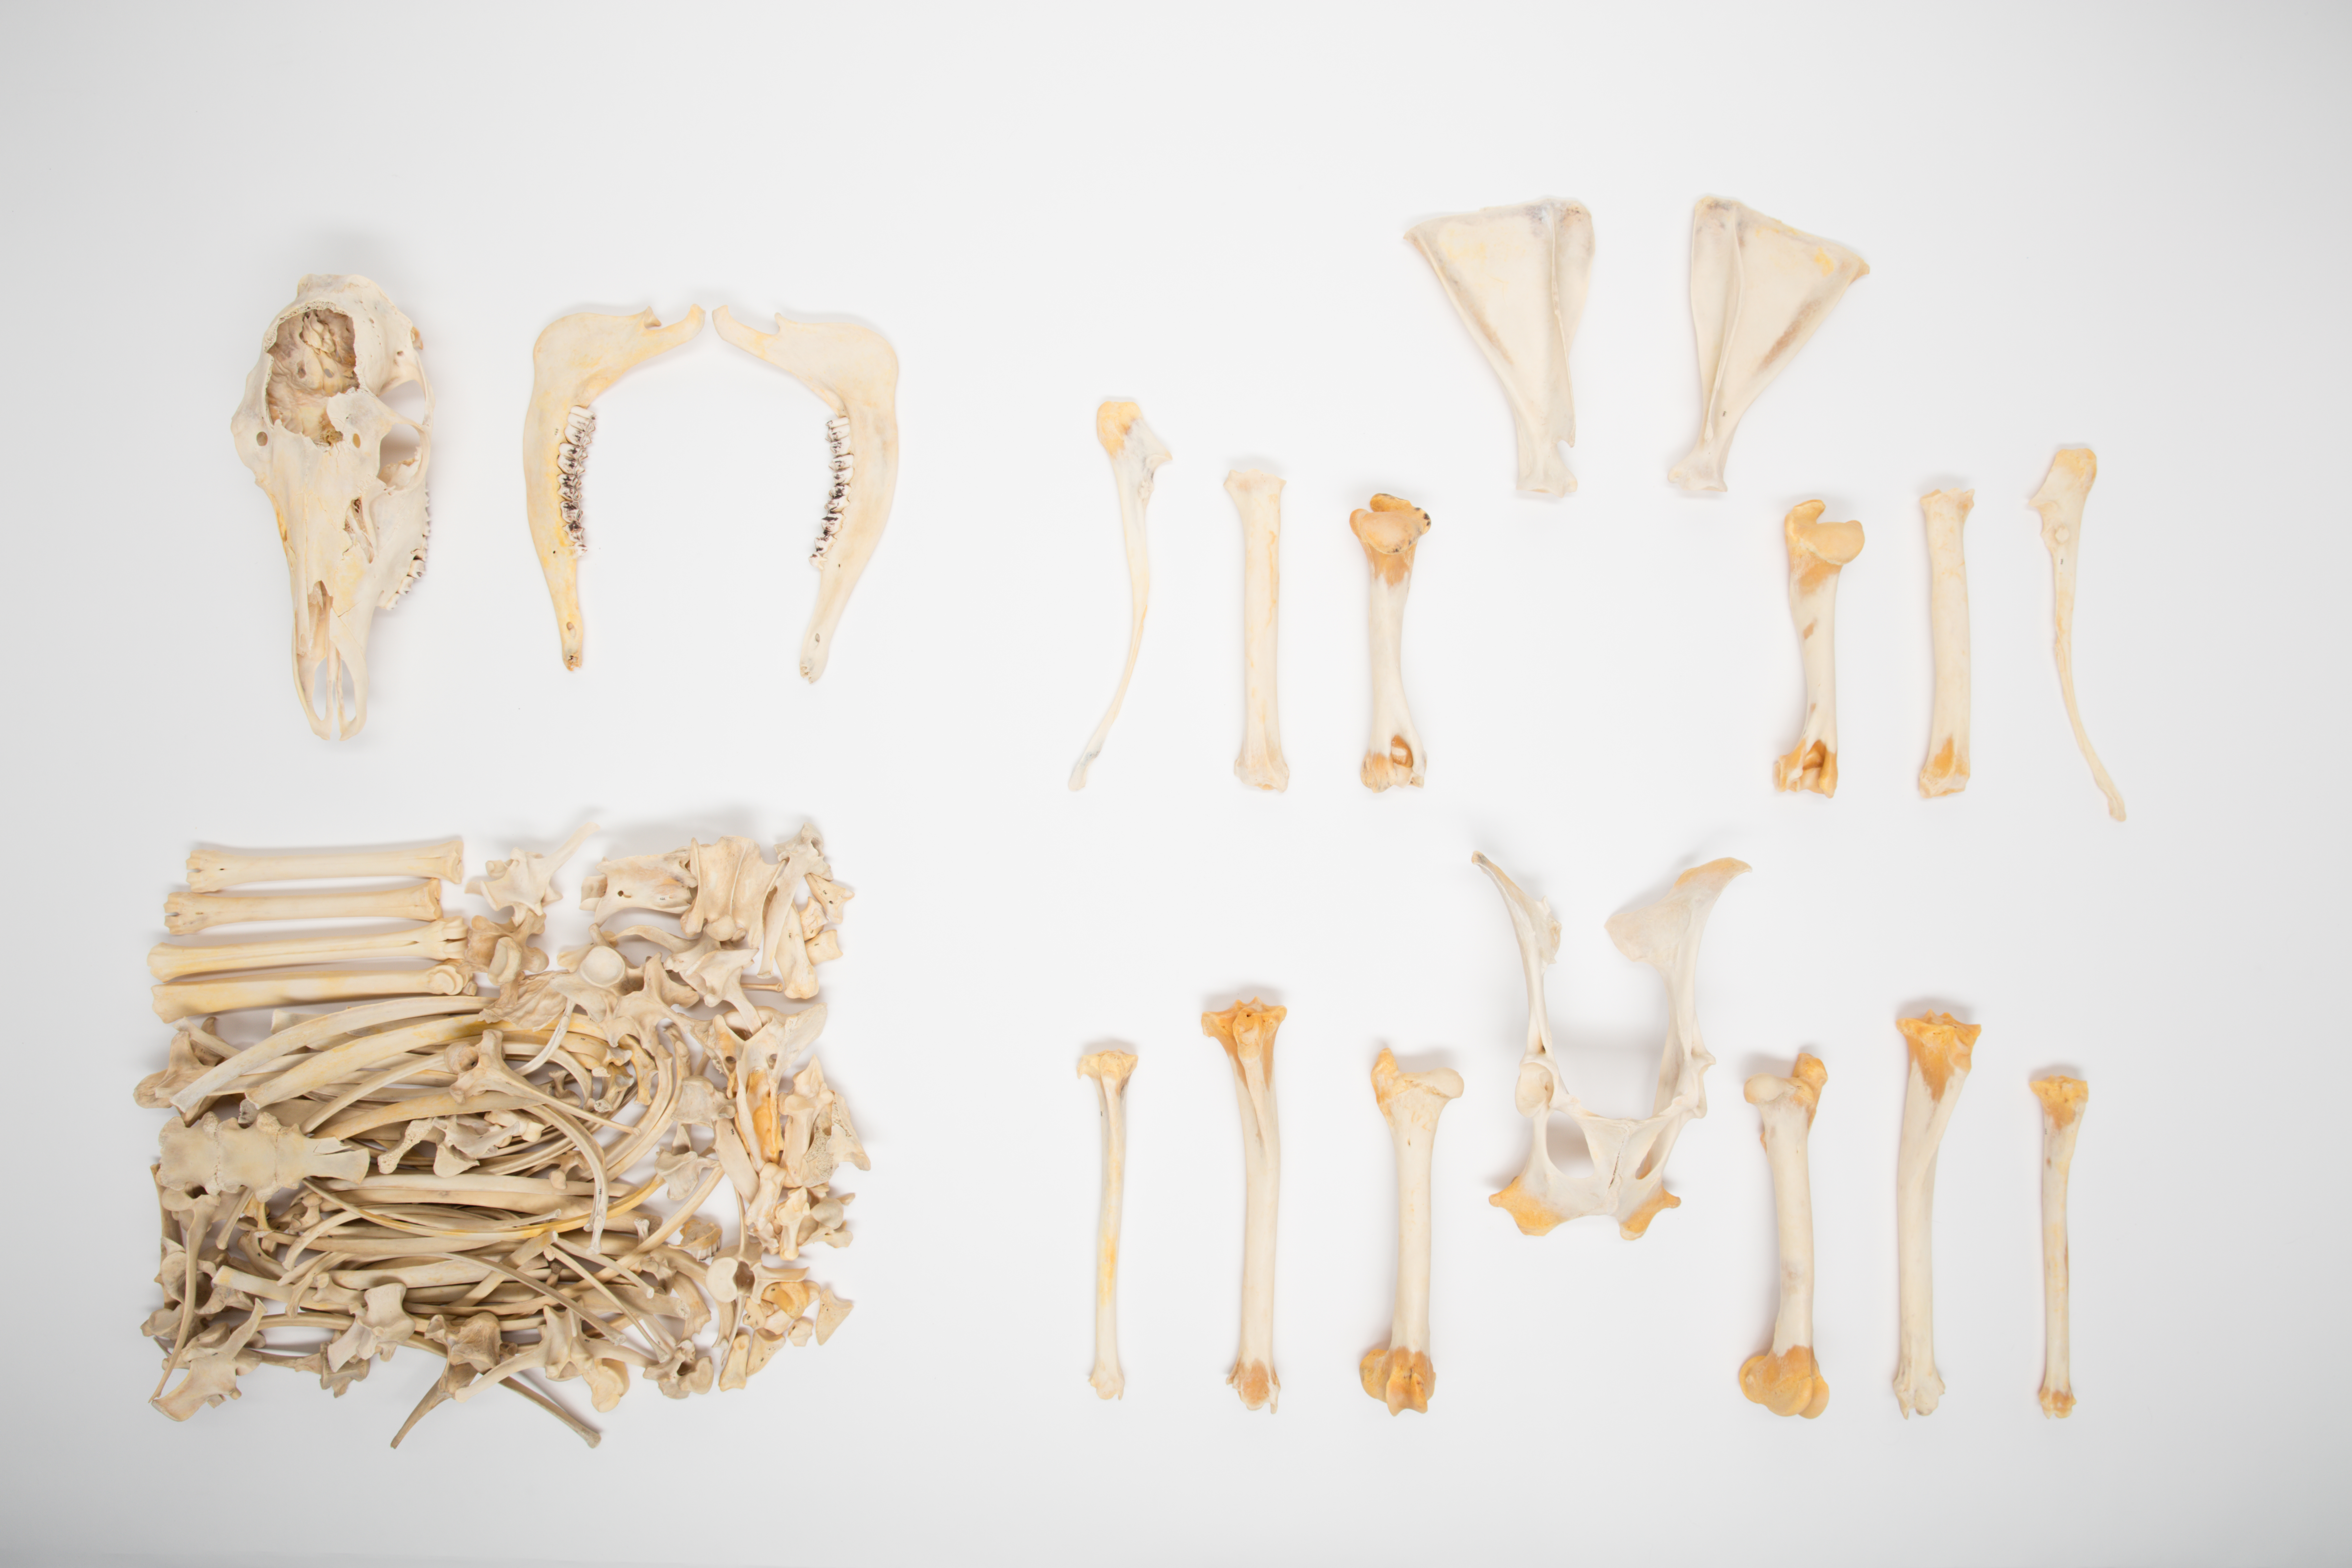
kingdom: Animalia
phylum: Chordata
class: Mammalia
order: Artiodactyla
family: Cervidae
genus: Cervus
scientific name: Cervus elaphus
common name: Red deer
